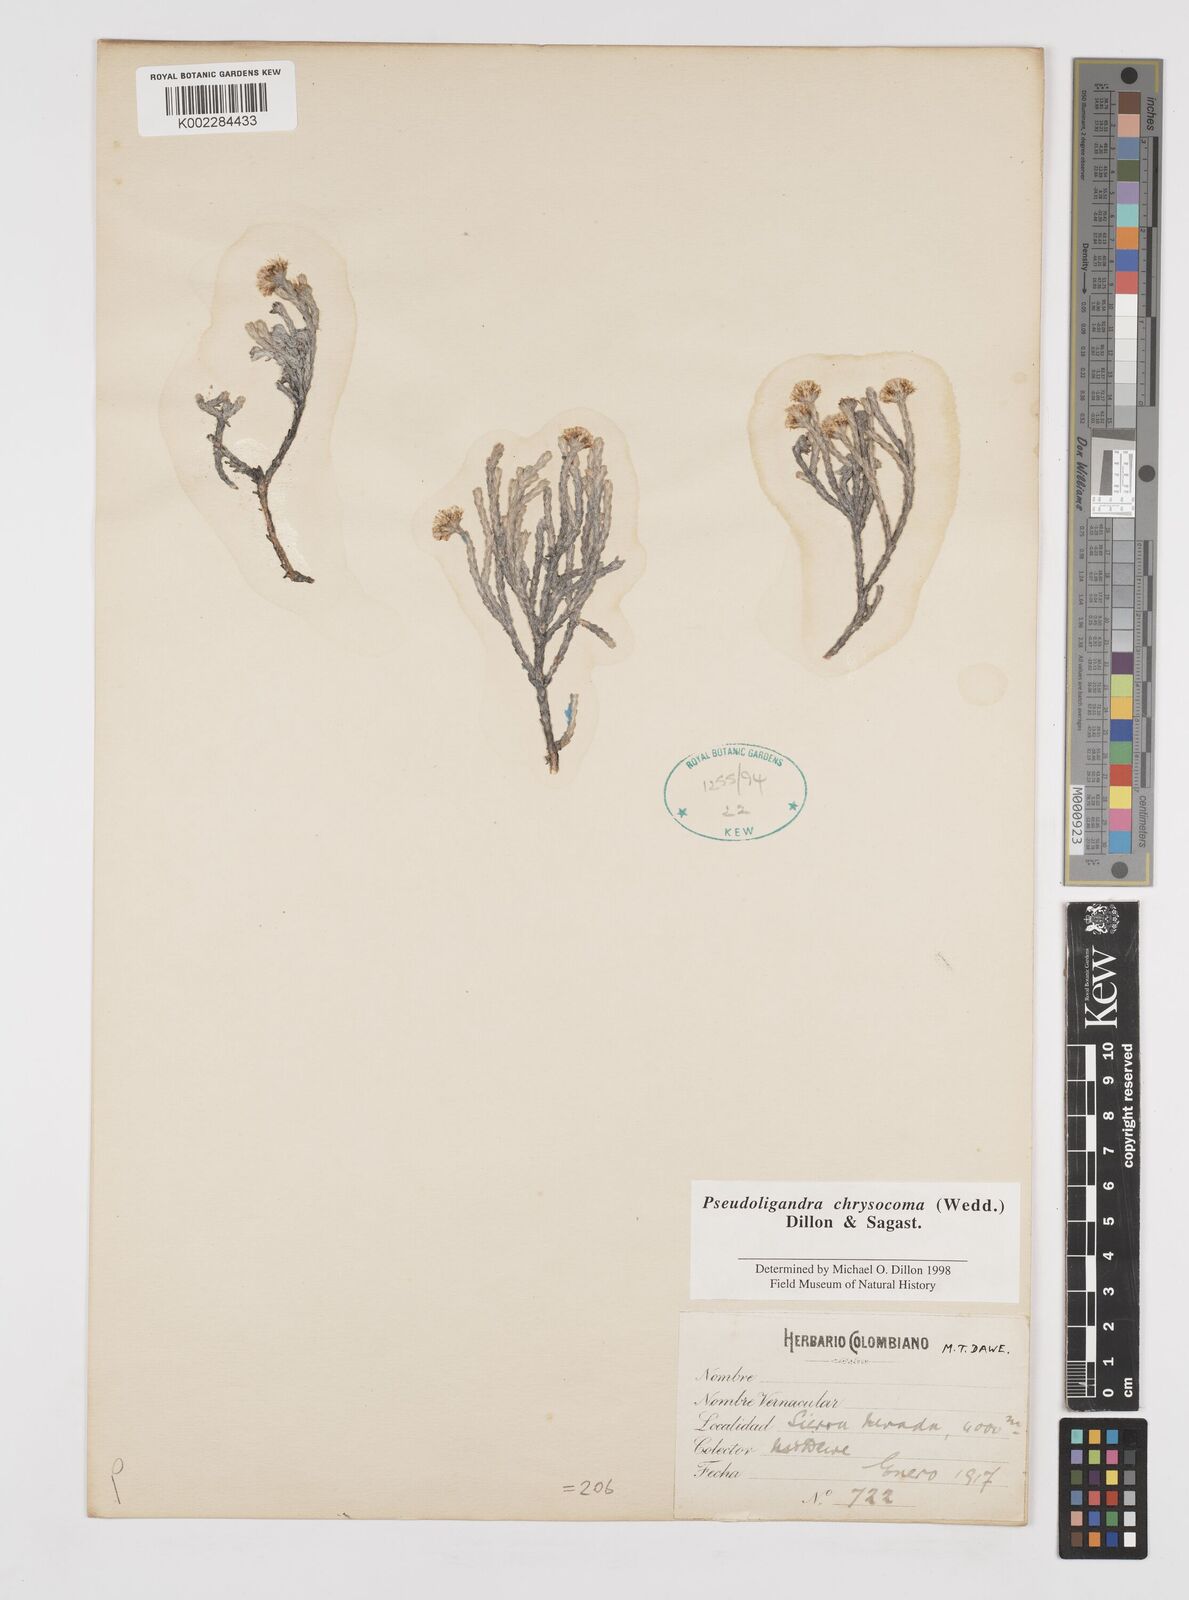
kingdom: Plantae
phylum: Tracheophyta
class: Magnoliopsida
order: Asterales
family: Asteraceae
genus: Chionolaena
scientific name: Chionolaena chrysocoma
